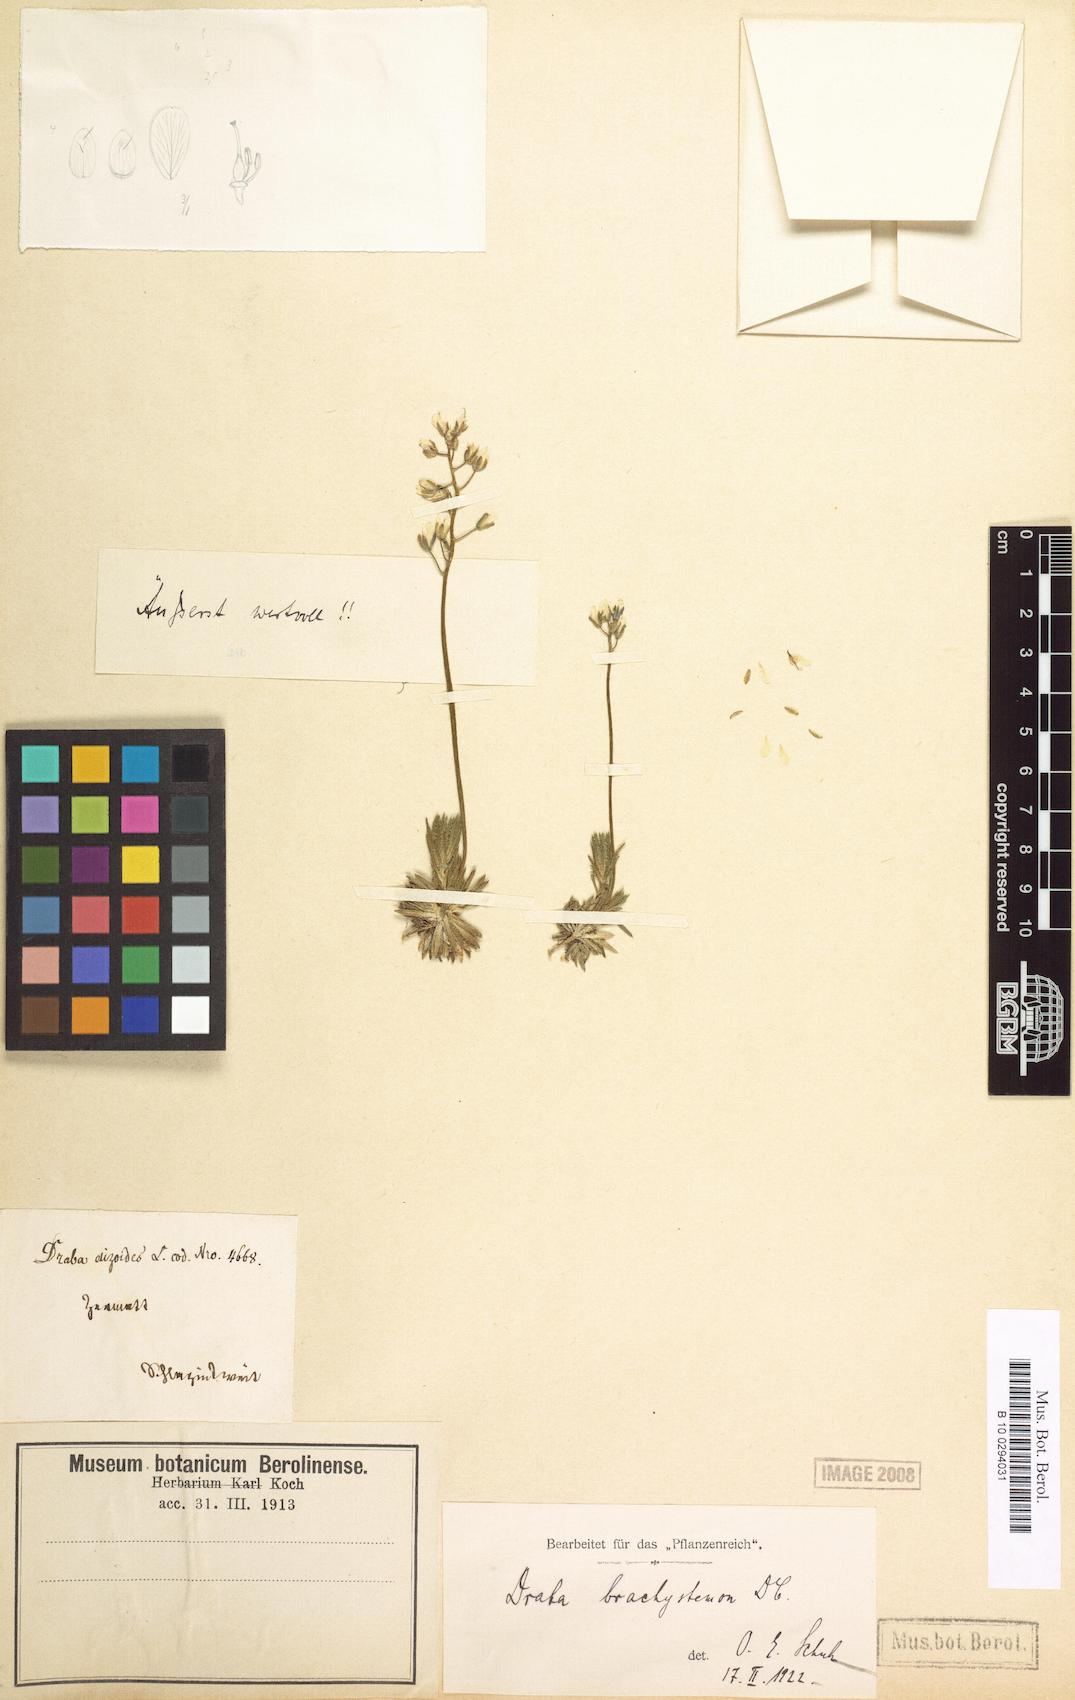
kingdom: Plantae
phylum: Tracheophyta
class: Magnoliopsida
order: Brassicales
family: Brassicaceae
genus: Draba
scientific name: Draba brachystemon
